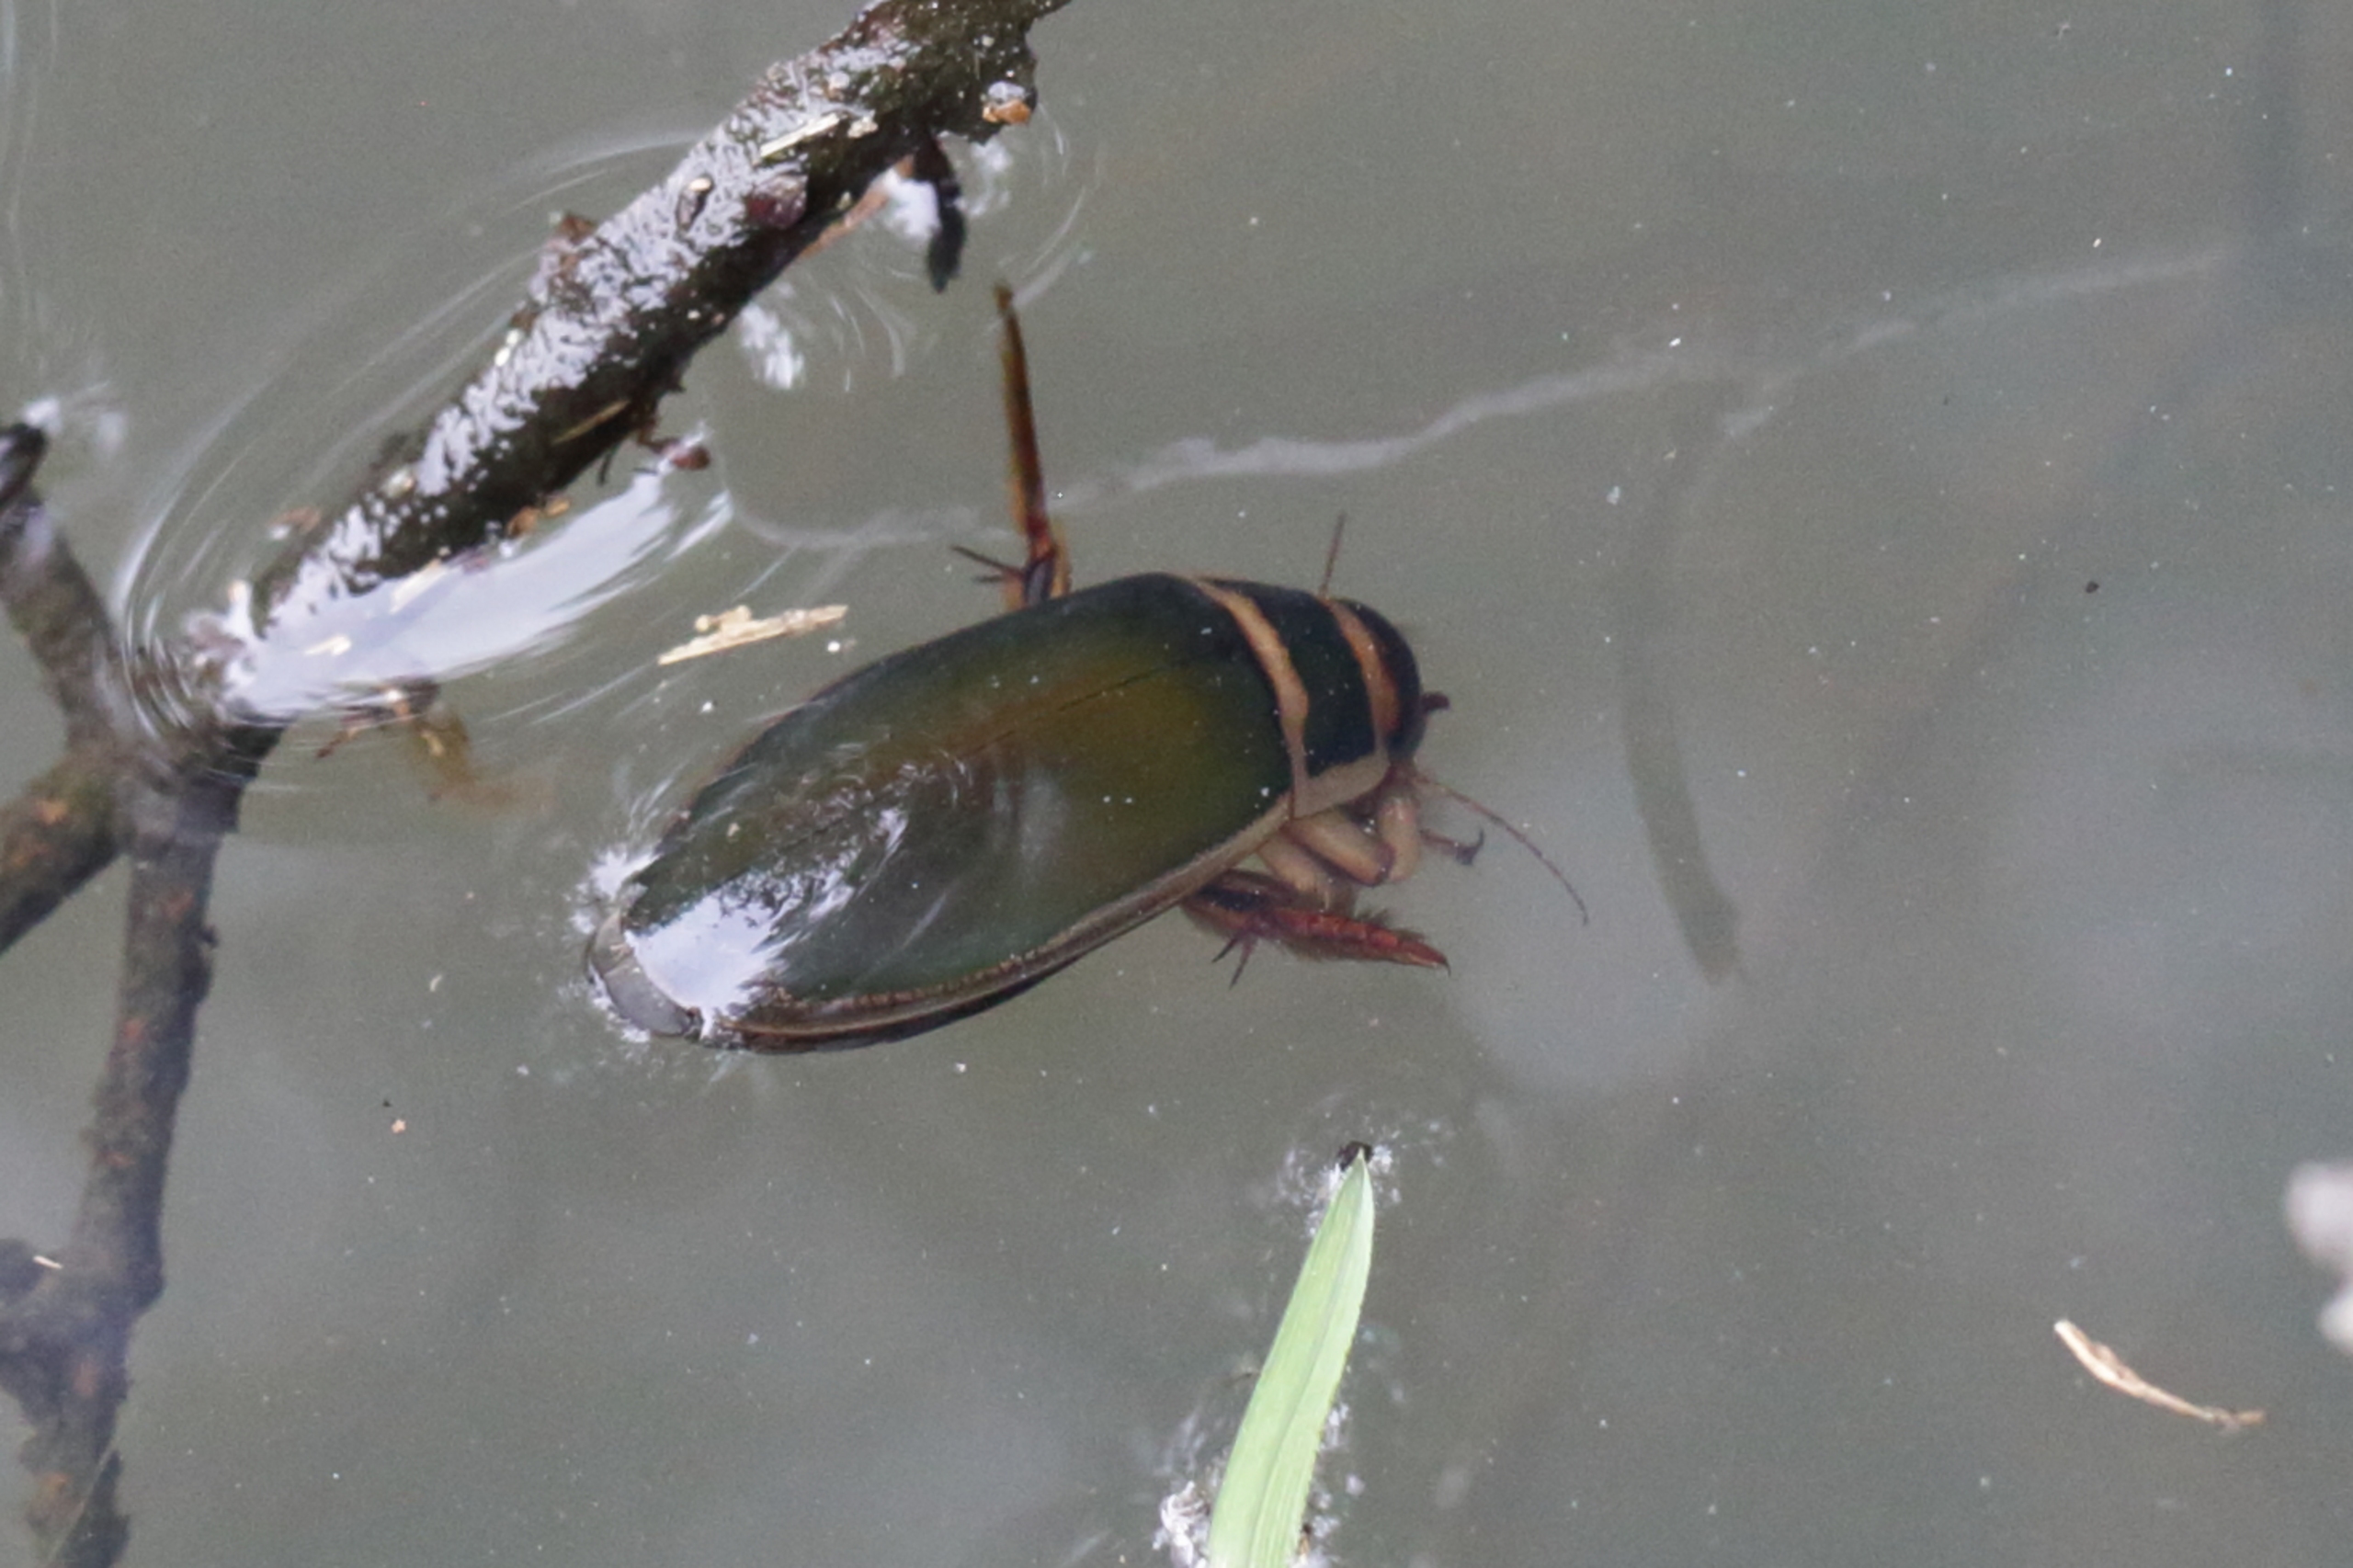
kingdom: Animalia
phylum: Arthropoda
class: Insecta
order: Coleoptera
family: Dytiscidae
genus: Dytiscus
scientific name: Dytiscus
